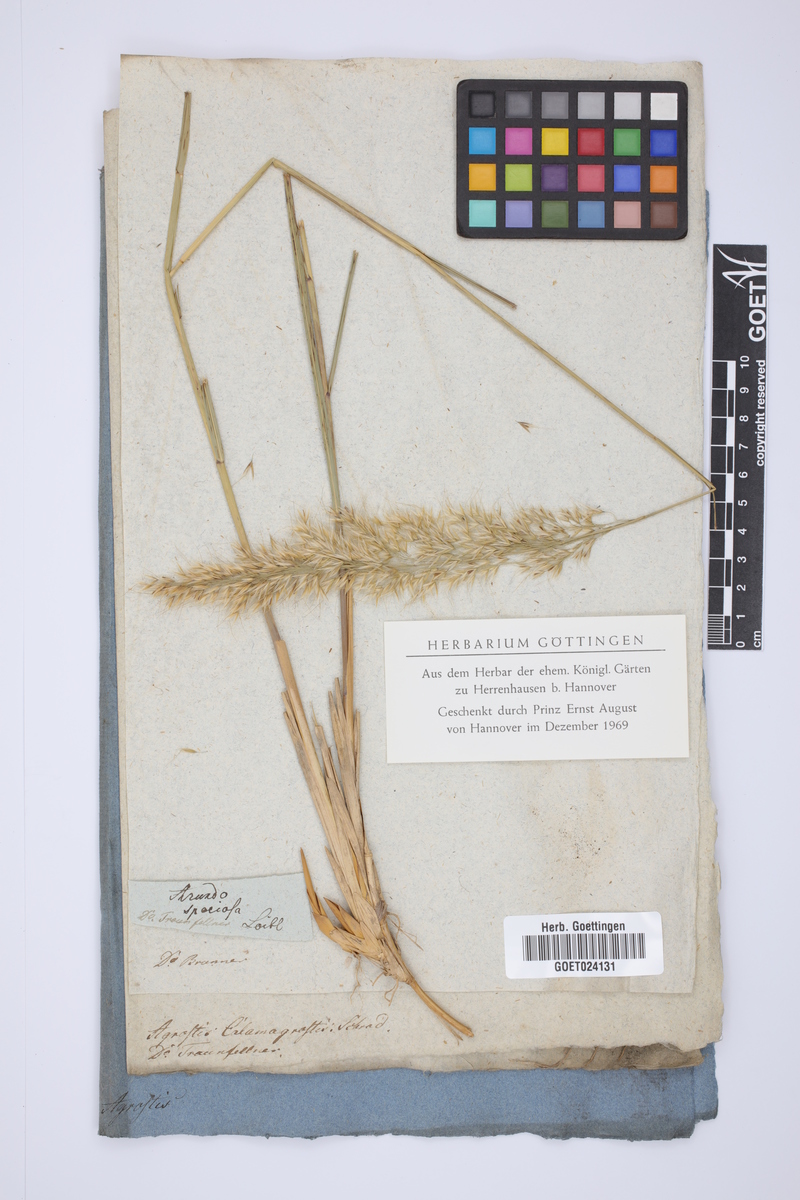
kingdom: Plantae
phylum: Tracheophyta
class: Liliopsida
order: Poales
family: Poaceae
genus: Achnatherum
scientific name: Achnatherum calamagrostis
